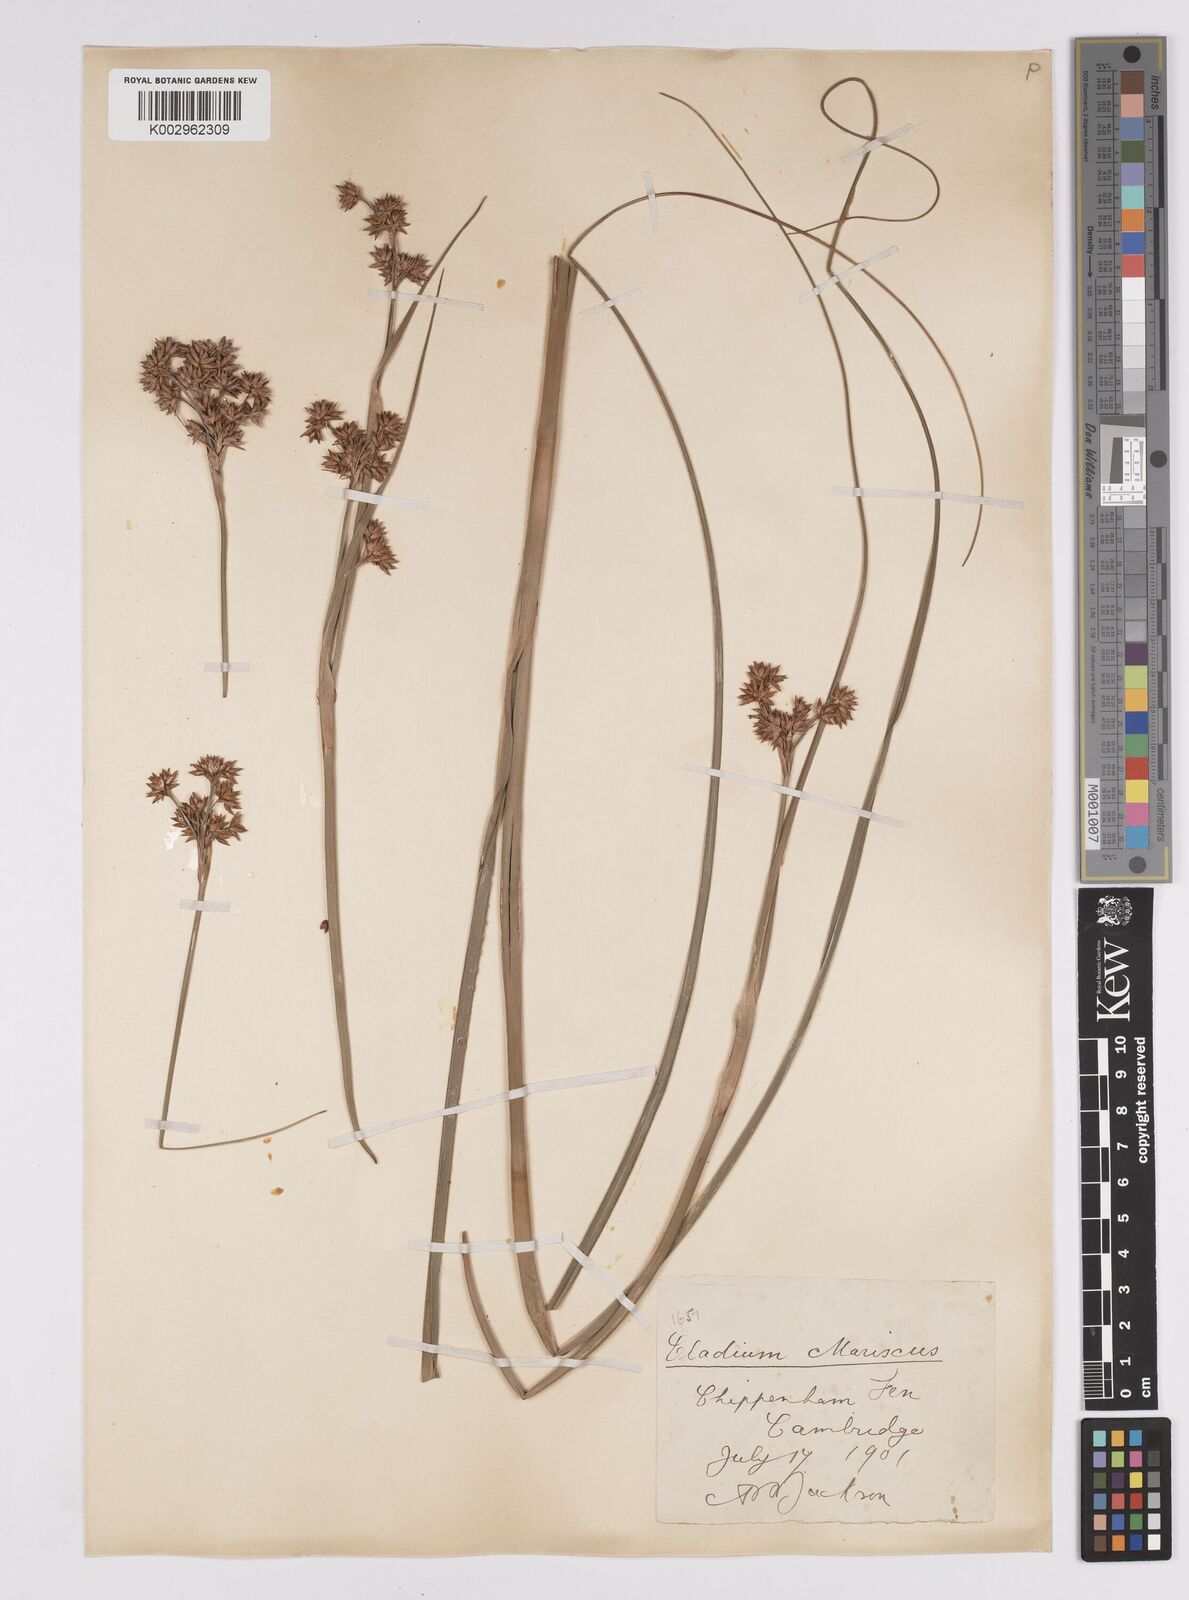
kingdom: Plantae
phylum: Tracheophyta
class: Liliopsida
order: Poales
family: Cyperaceae
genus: Cladium
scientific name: Cladium mariscus
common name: Great fen-sedge
